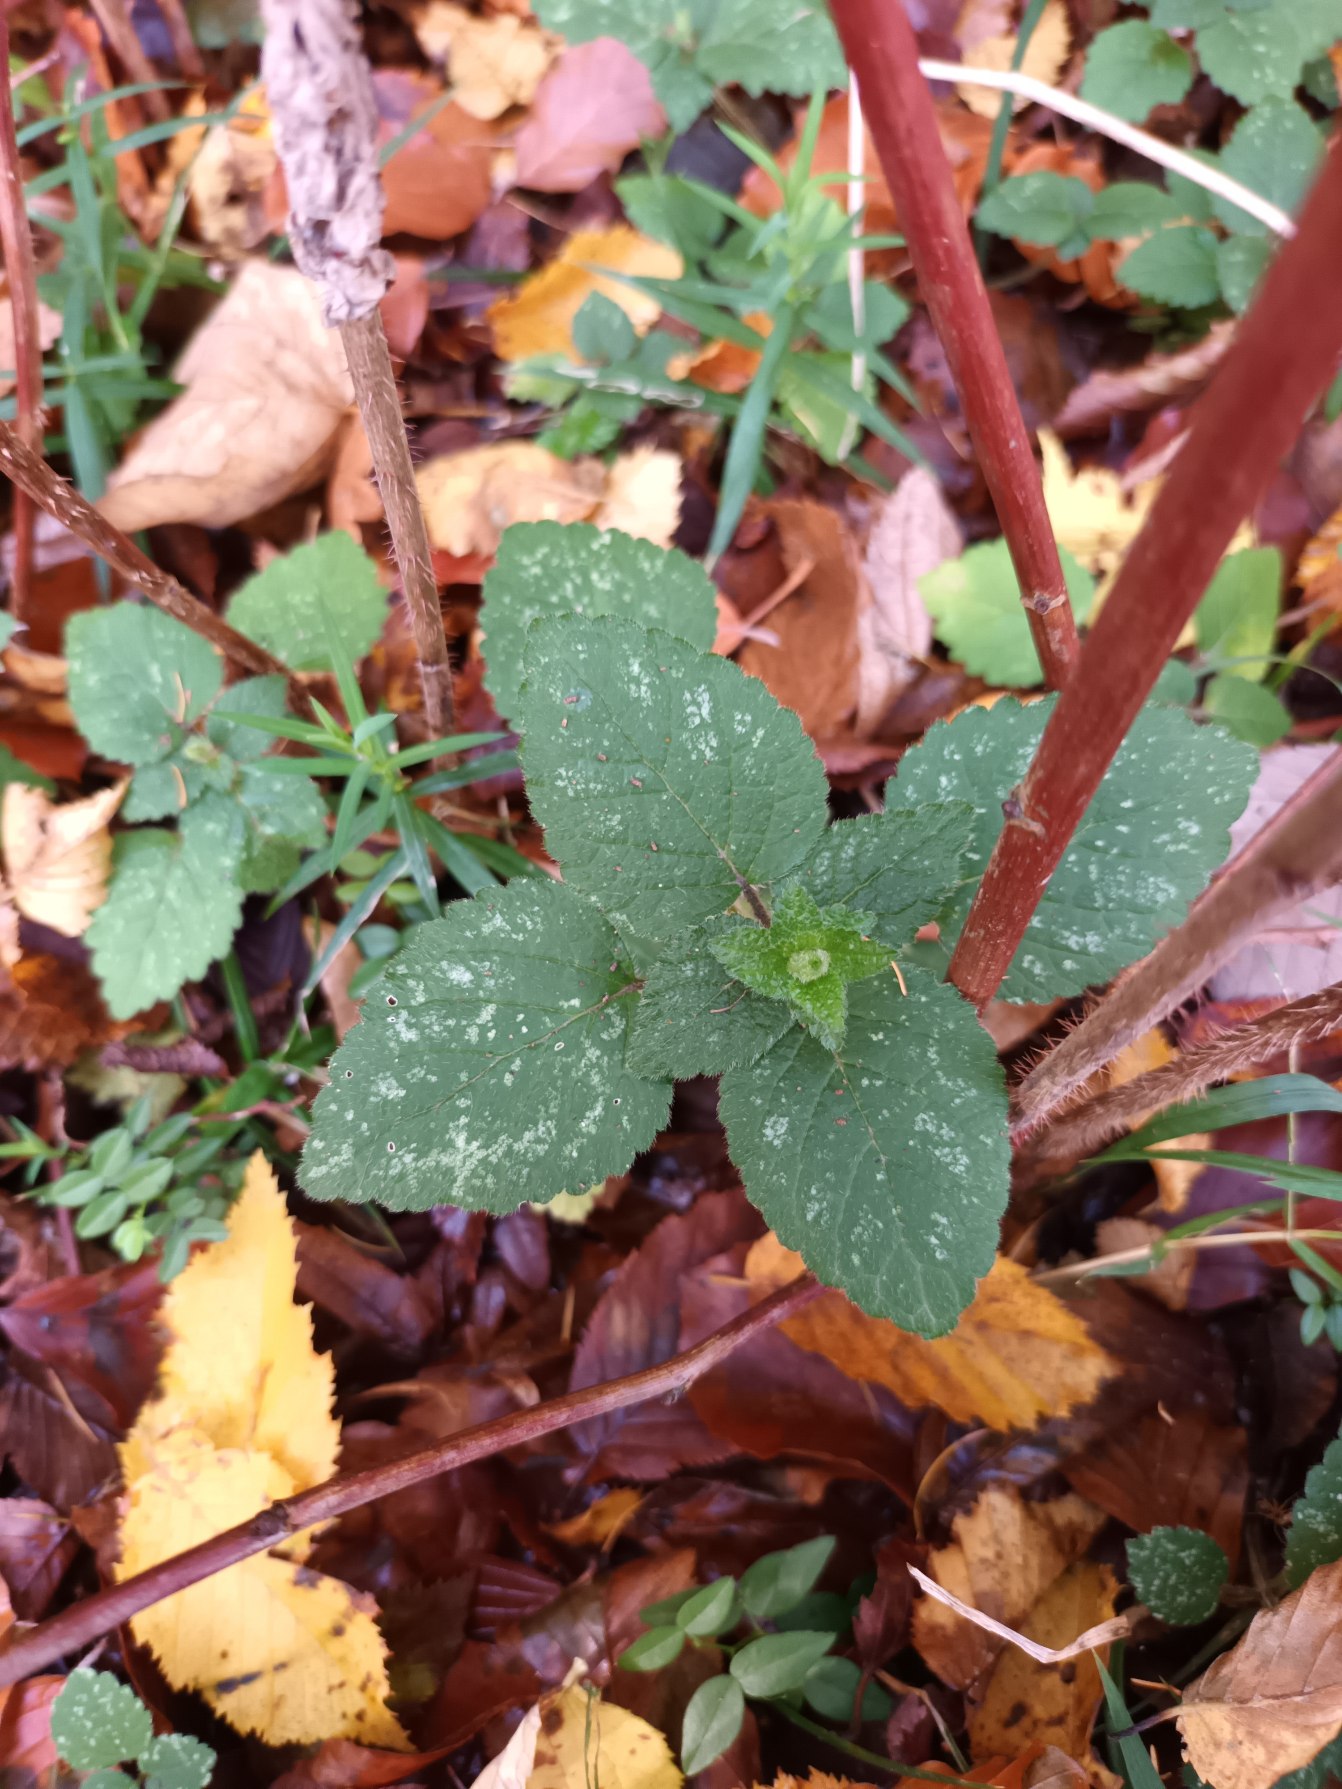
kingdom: Plantae
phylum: Tracheophyta
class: Magnoliopsida
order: Lamiales
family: Lamiaceae
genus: Lamium
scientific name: Lamium galeobdolon
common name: Almindelig guldnælde
